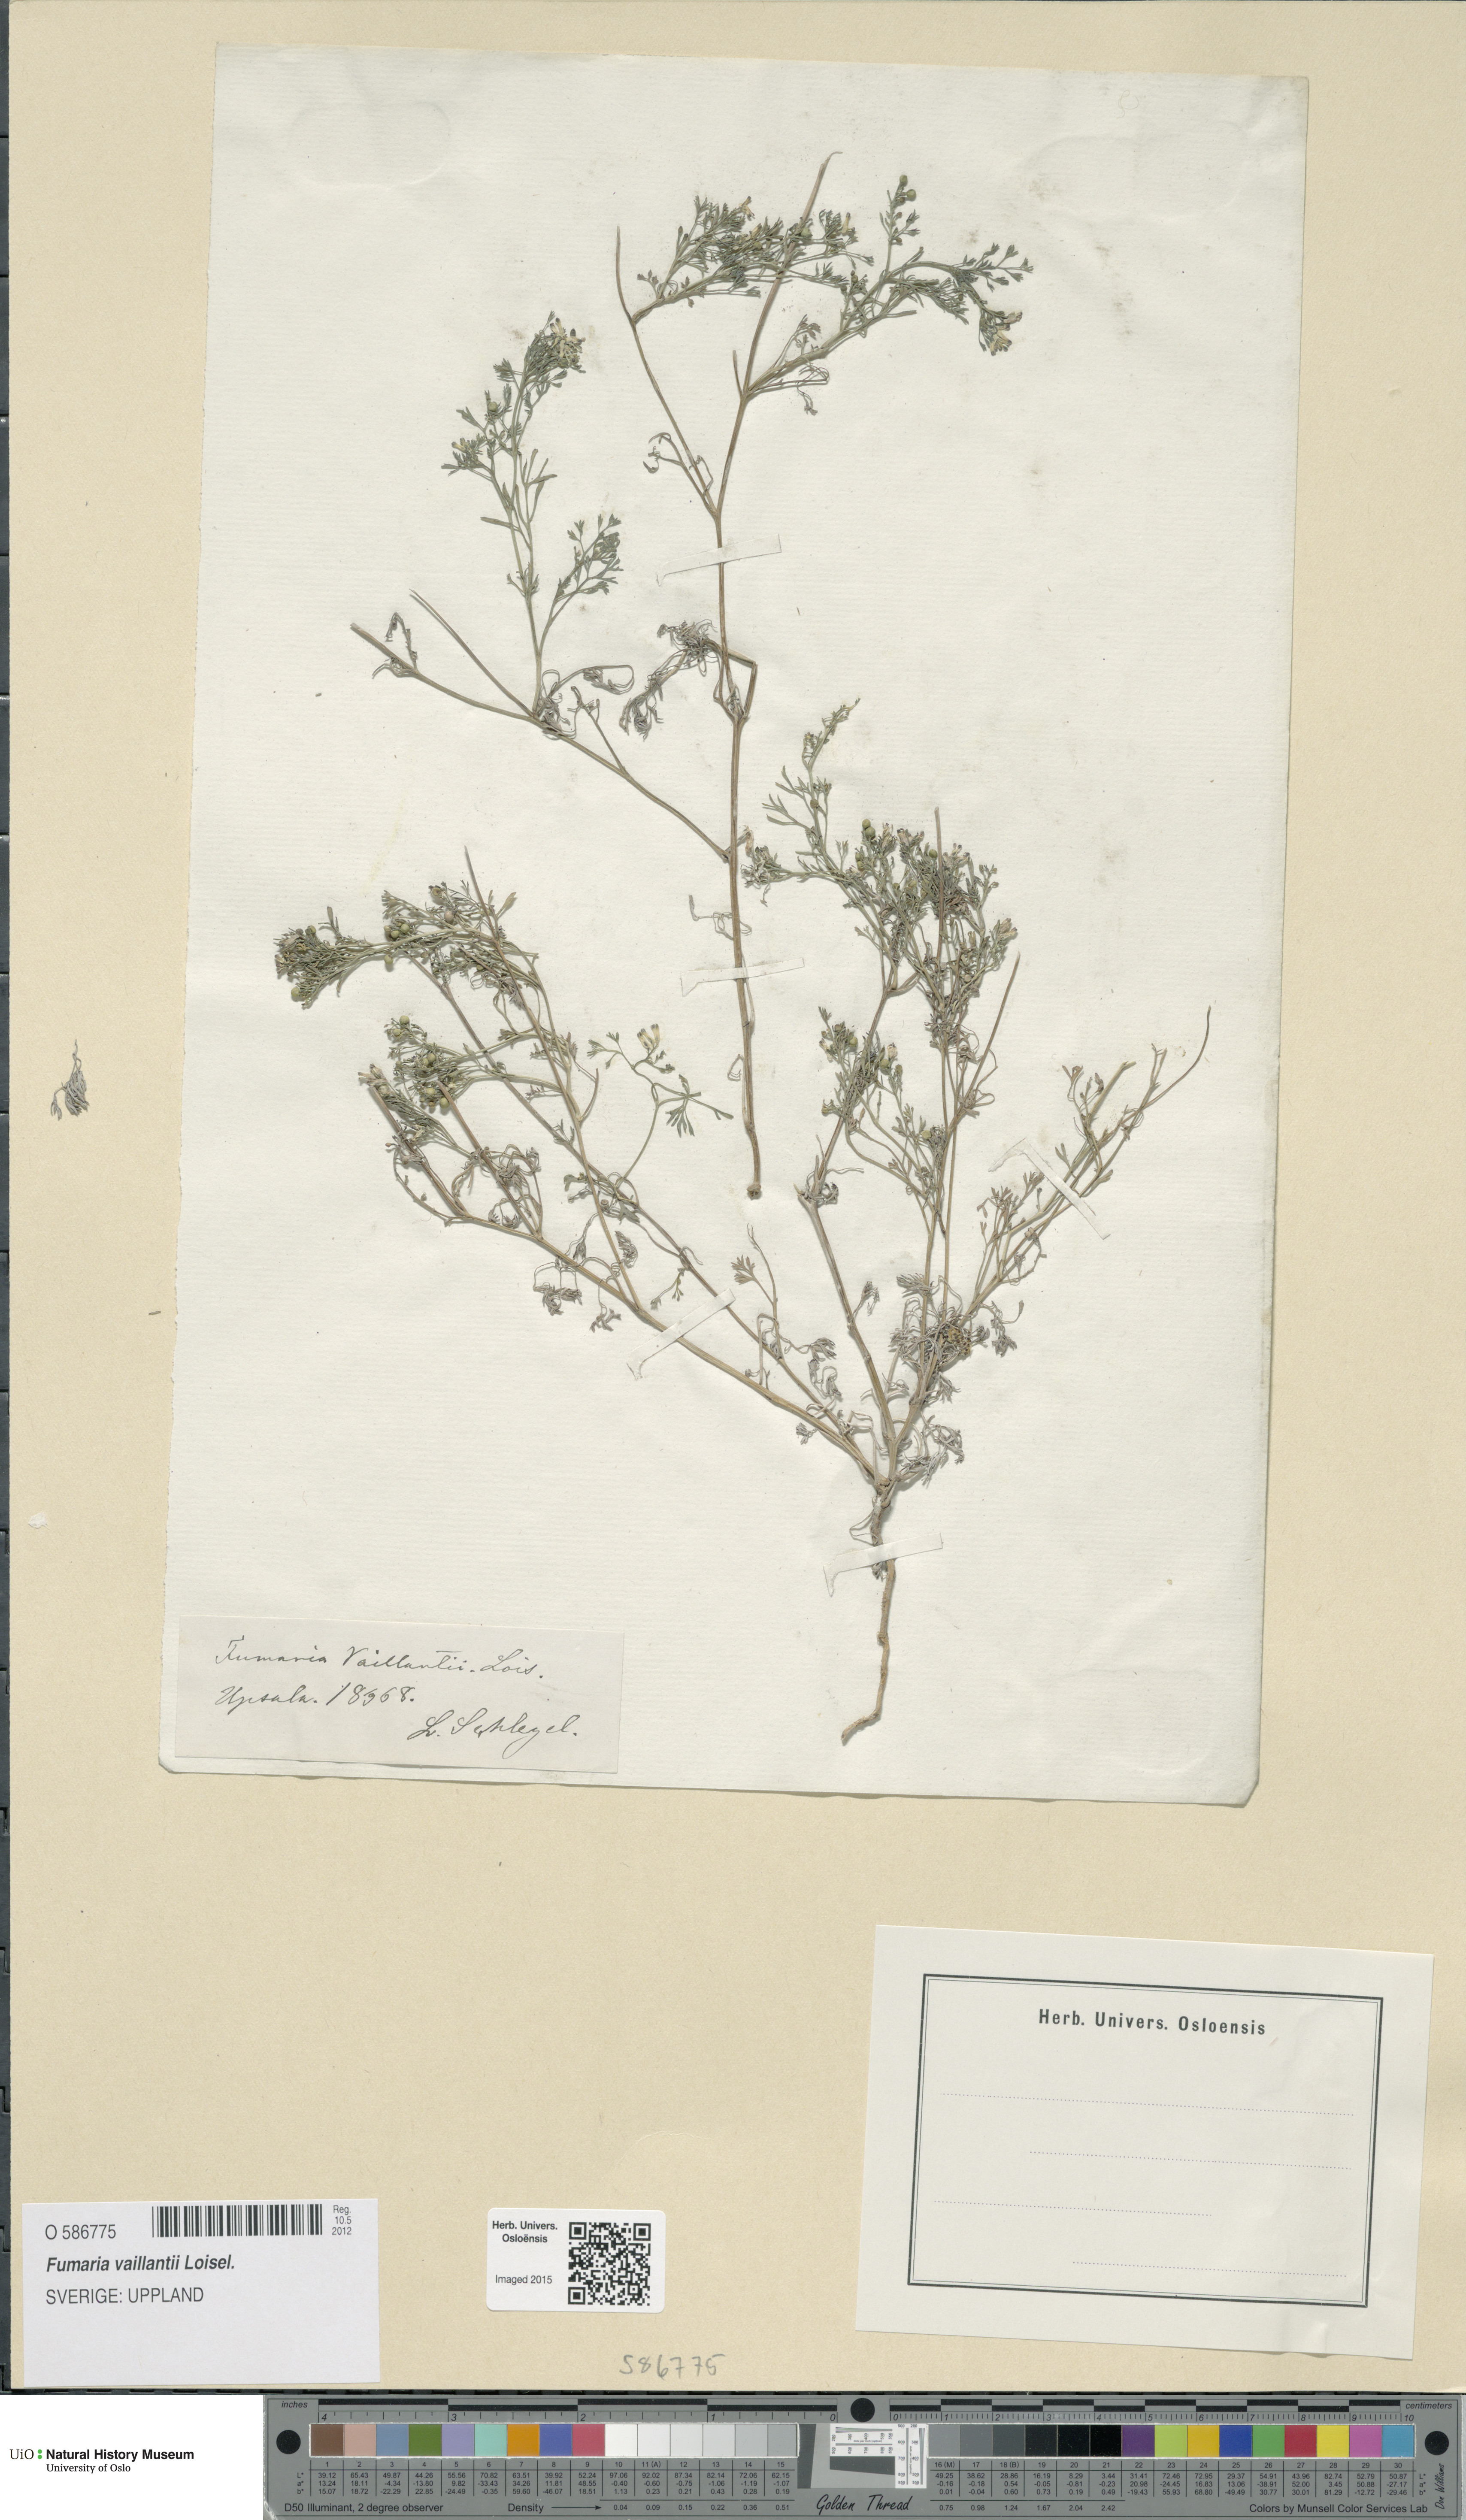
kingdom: Plantae
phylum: Tracheophyta
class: Magnoliopsida
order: Ranunculales
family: Papaveraceae
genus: Fumaria
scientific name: Fumaria vaillantii
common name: Few-flowered fumitory
